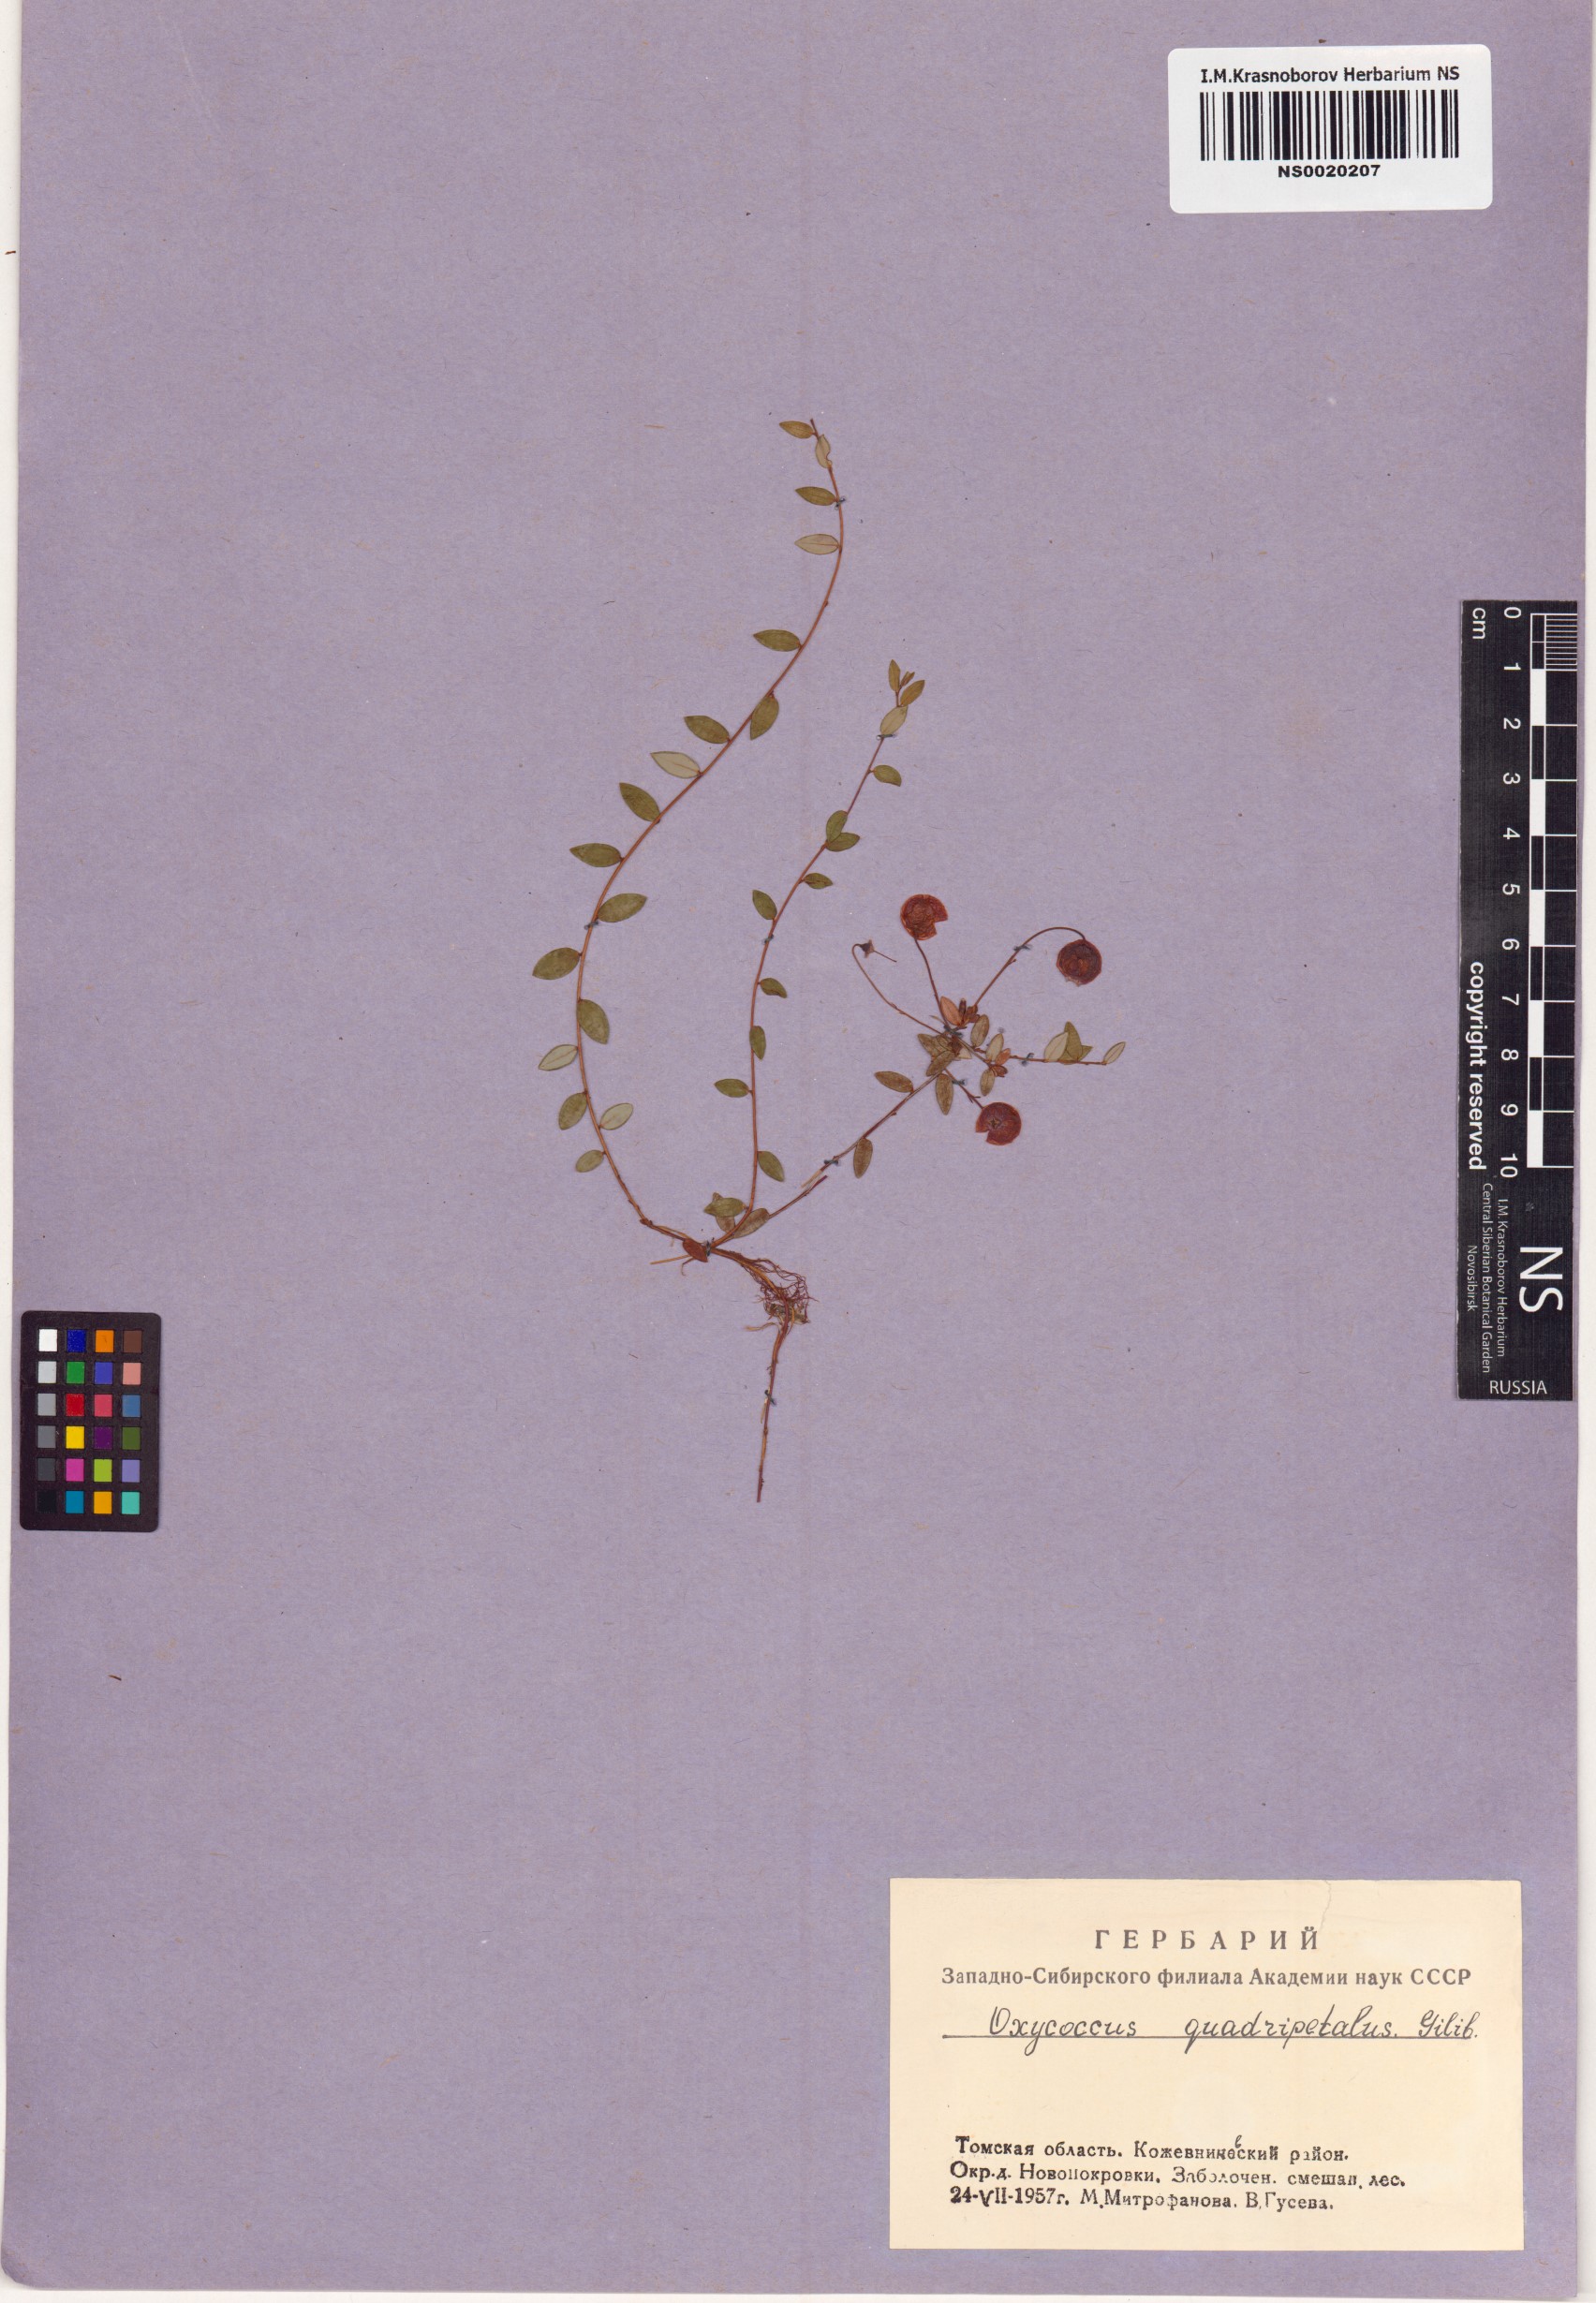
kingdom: Plantae
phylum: Tracheophyta
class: Magnoliopsida
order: Ericales
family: Ericaceae
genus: Vaccinium
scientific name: Vaccinium oxycoccos
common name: Cranberry
